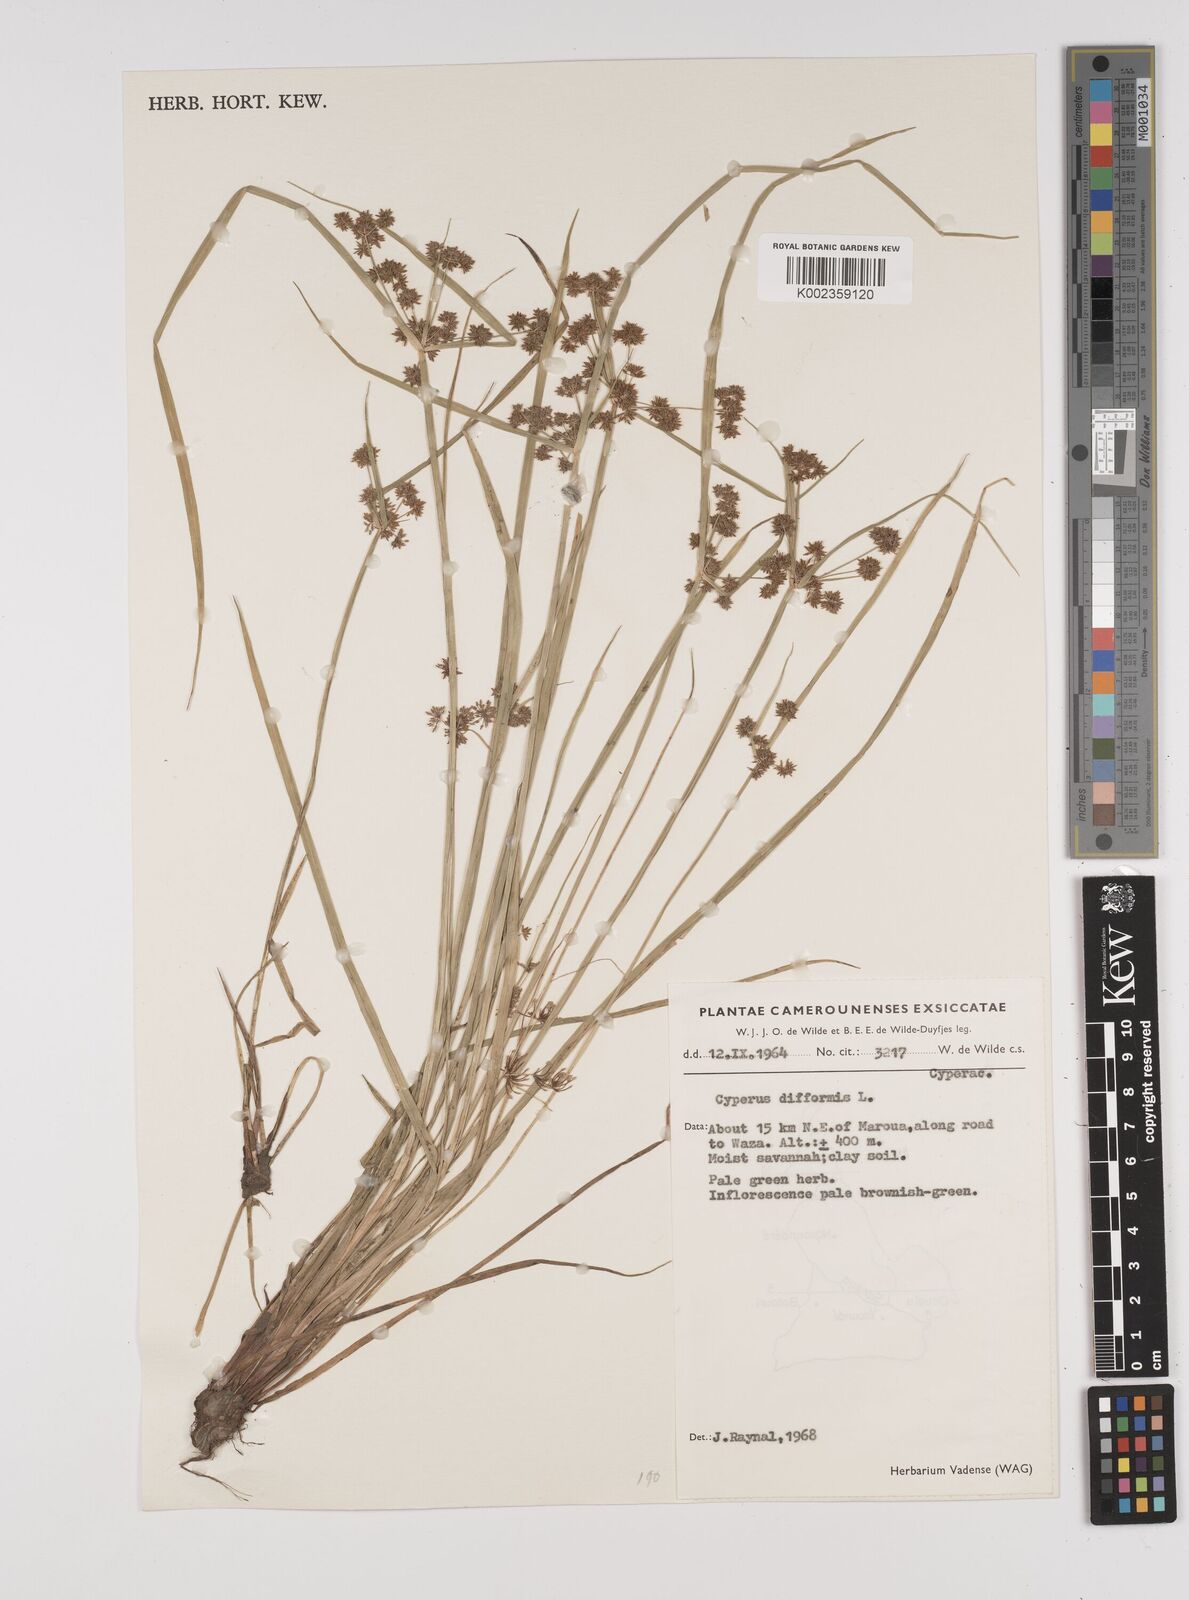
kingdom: Plantae
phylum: Tracheophyta
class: Liliopsida
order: Poales
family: Cyperaceae
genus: Cyperus
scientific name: Cyperus difformis
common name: Variable flatsedge
